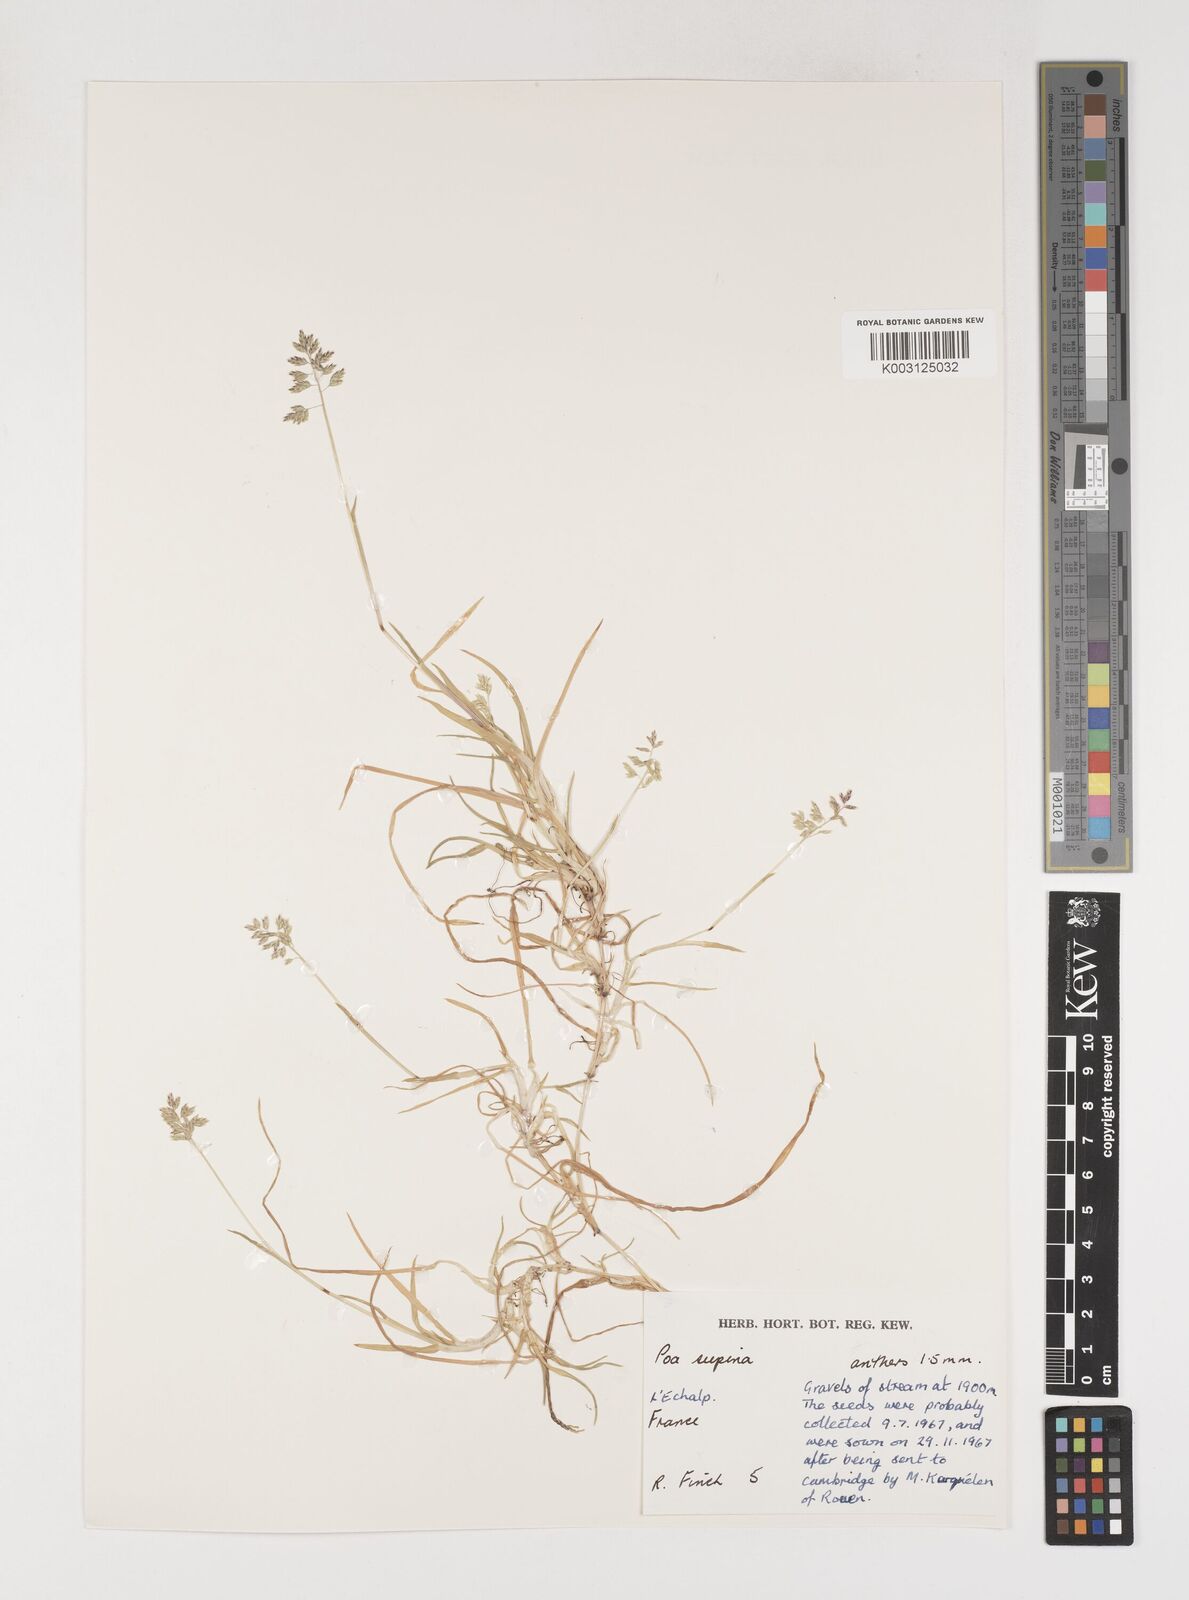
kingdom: Plantae
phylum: Tracheophyta
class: Liliopsida
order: Poales
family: Poaceae
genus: Poa
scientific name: Poa supina
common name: Supina bluegrass
